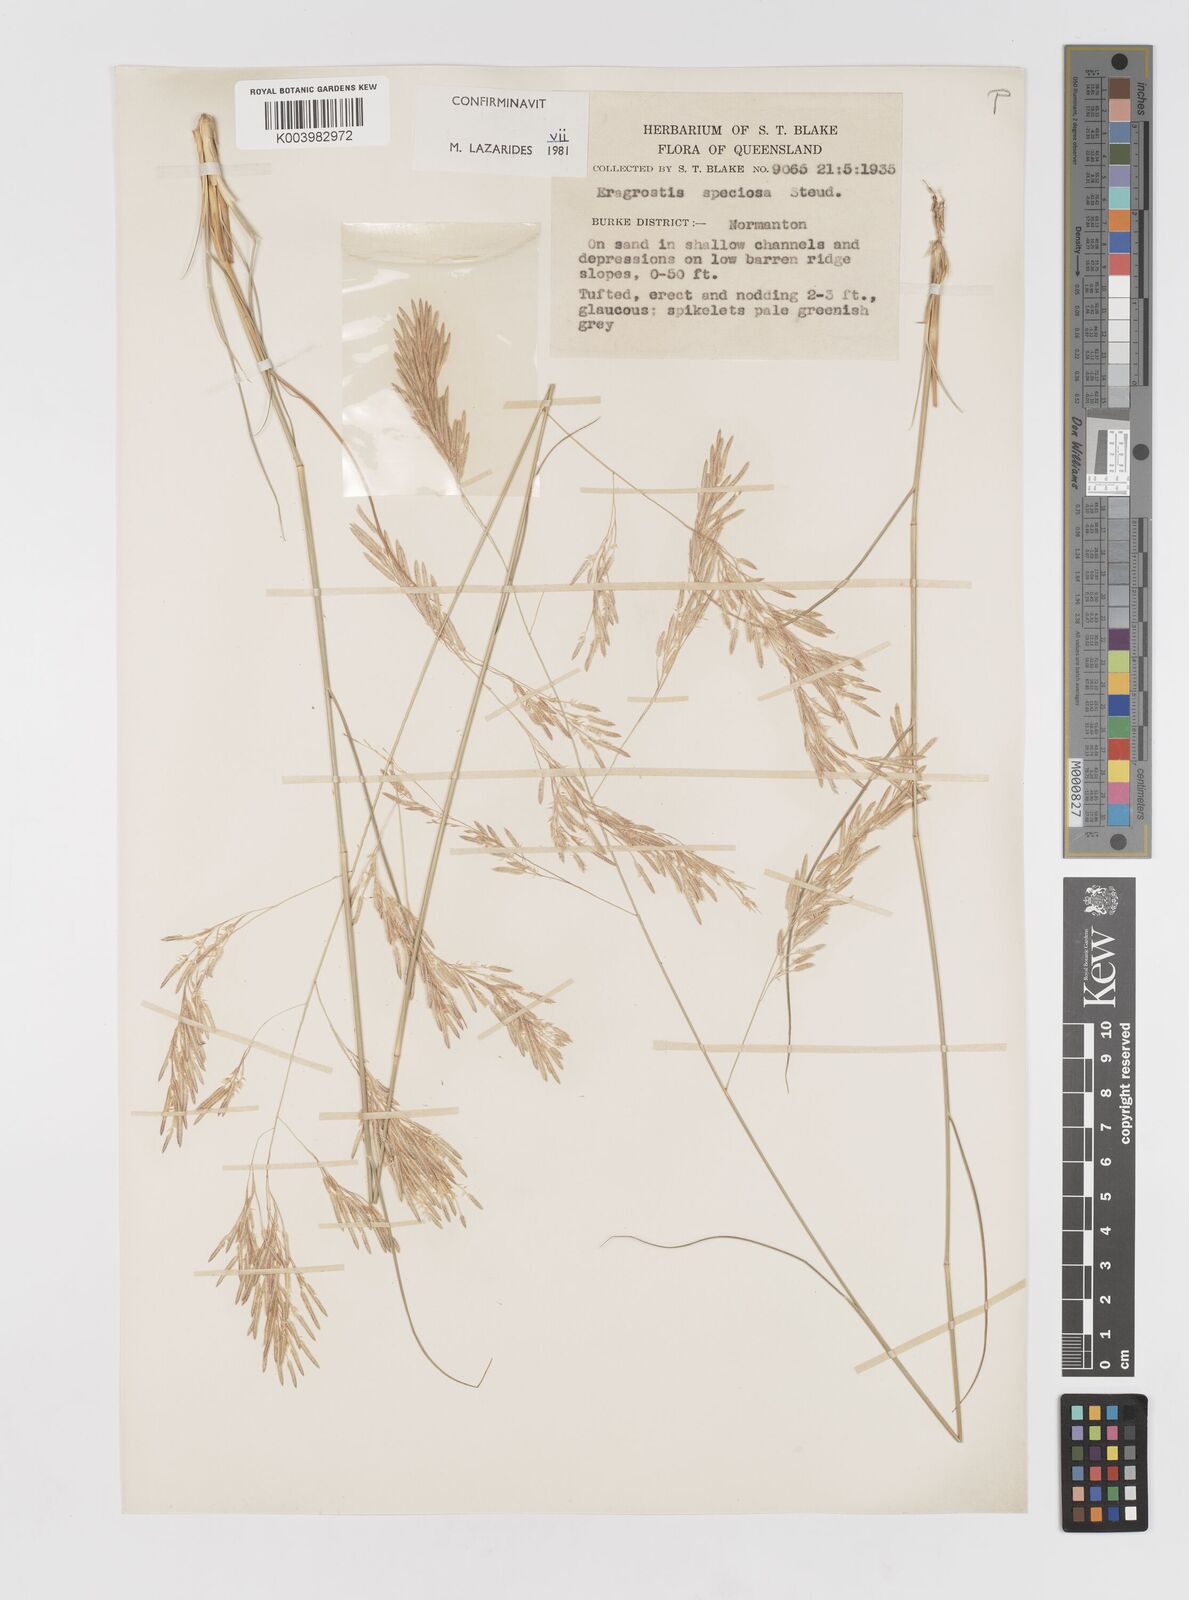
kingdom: Plantae
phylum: Tracheophyta
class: Liliopsida
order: Poales
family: Poaceae
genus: Eragrostis
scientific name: Eragrostis speciosa
